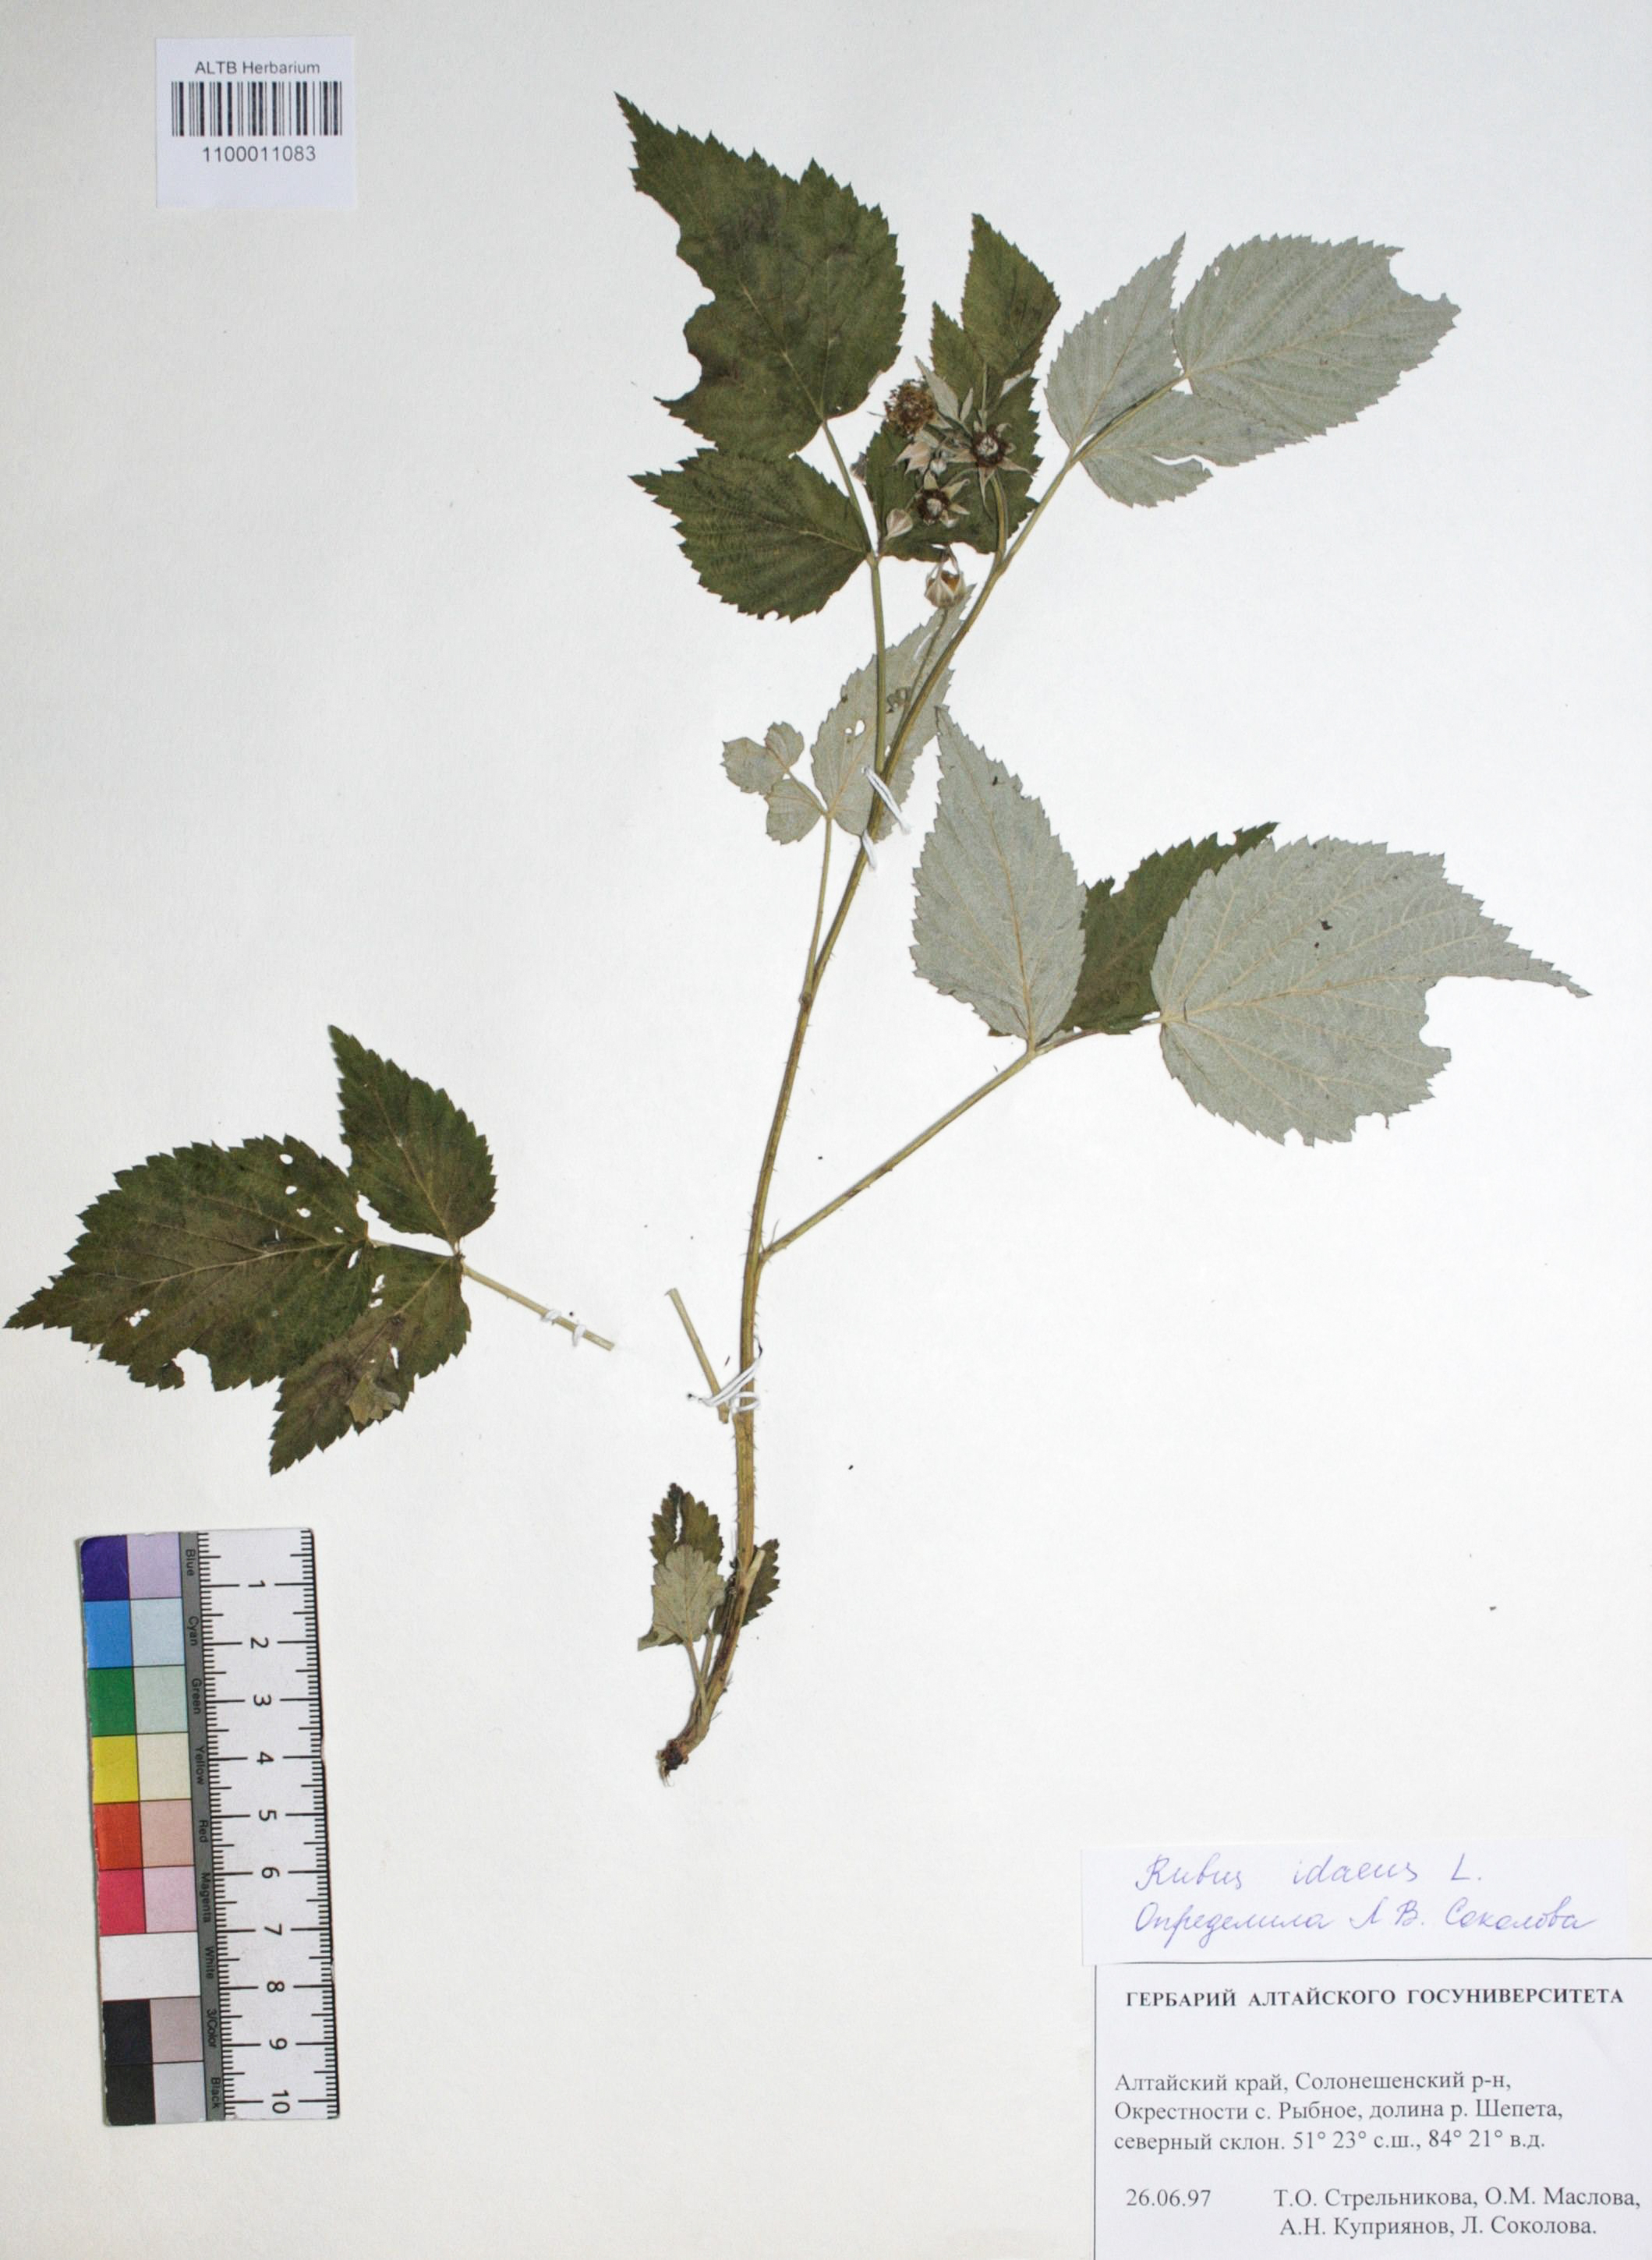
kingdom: Plantae
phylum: Tracheophyta
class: Magnoliopsida
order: Rosales
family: Rosaceae
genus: Rubus
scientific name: Rubus idaeus
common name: Raspberry
